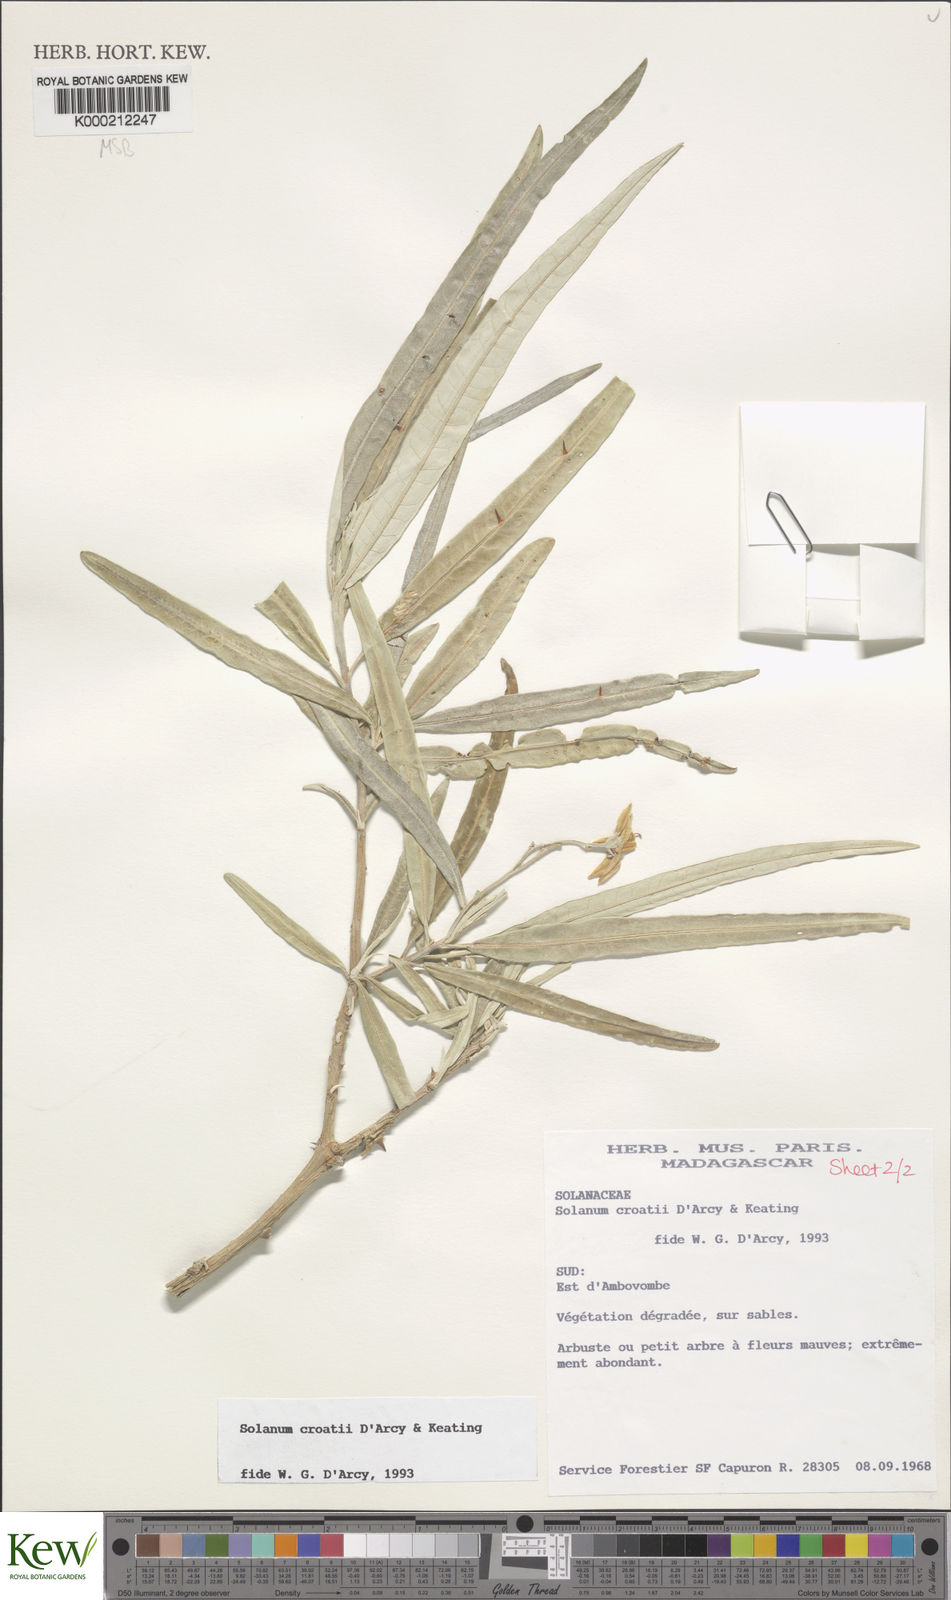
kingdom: Plantae
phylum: Tracheophyta
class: Magnoliopsida
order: Solanales
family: Solanaceae
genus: Solanum
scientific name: Solanum croatii
